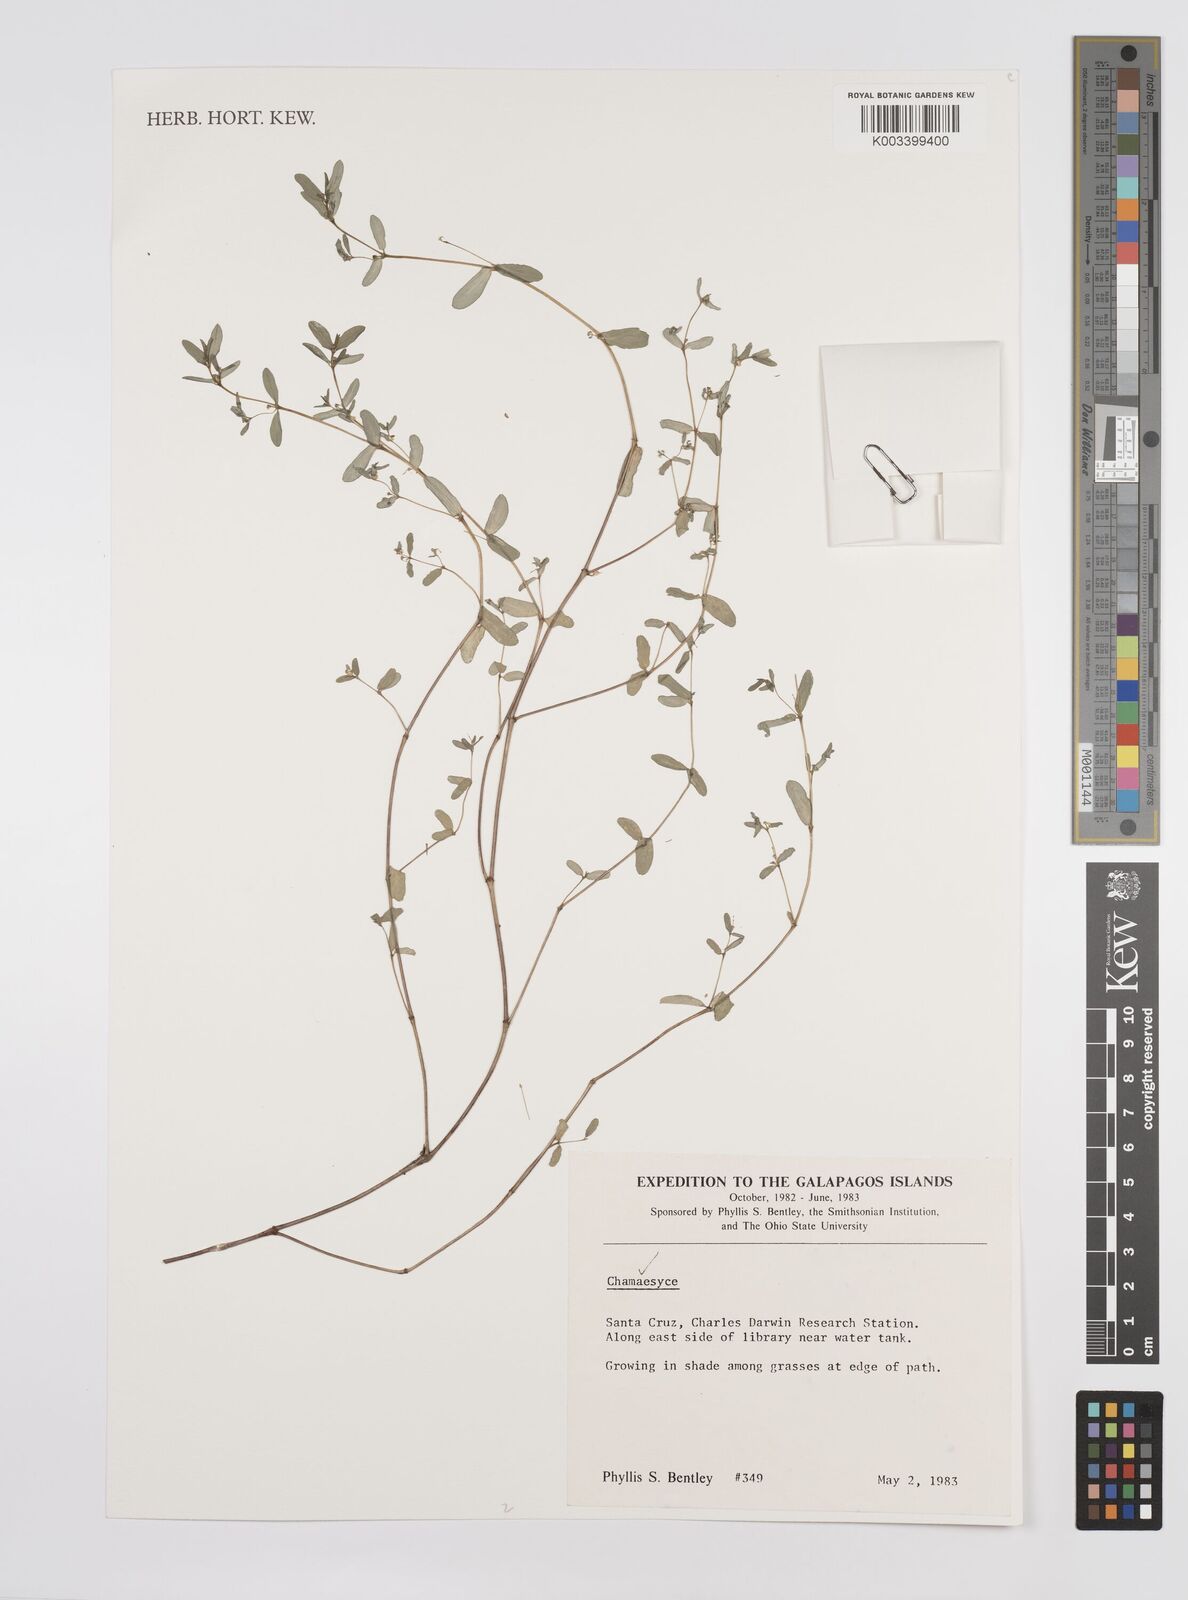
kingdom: Plantae
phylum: Tracheophyta
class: Magnoliopsida
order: Malpighiales
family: Euphorbiaceae
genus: Euphorbia
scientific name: Euphorbia
